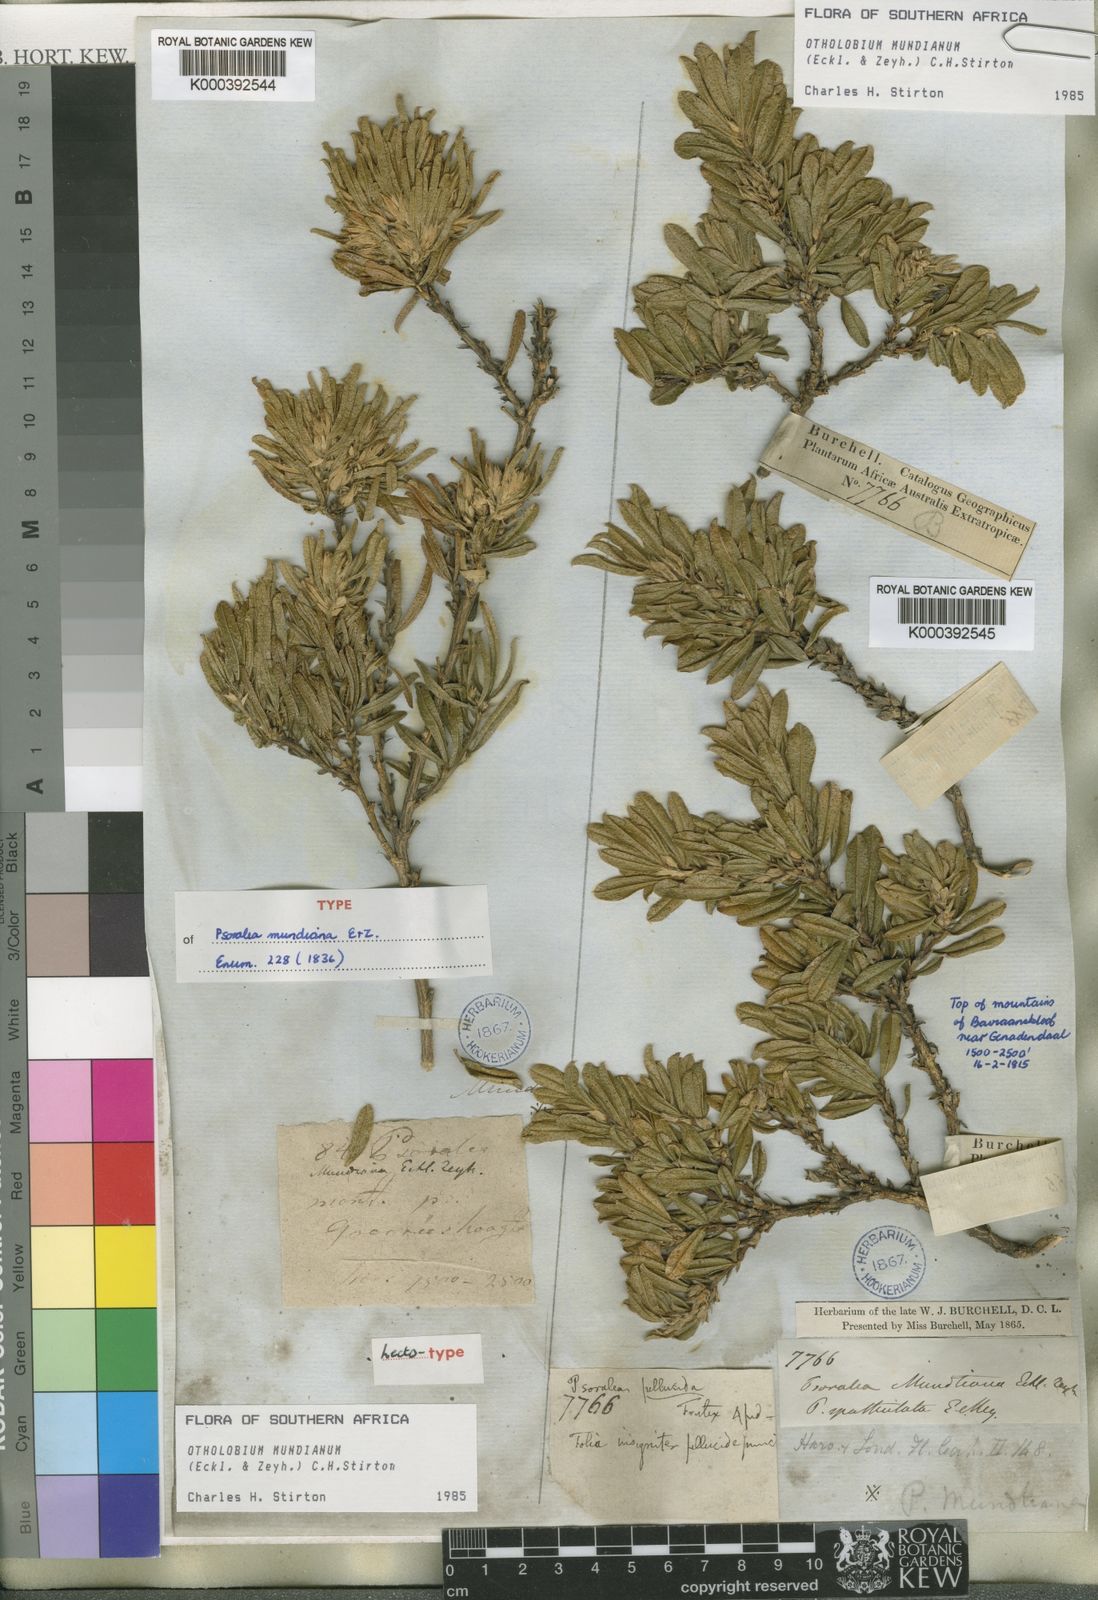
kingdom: Plantae
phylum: Tracheophyta
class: Magnoliopsida
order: Fabales
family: Fabaceae
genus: Psoralea
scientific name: Psoralea mundiana
